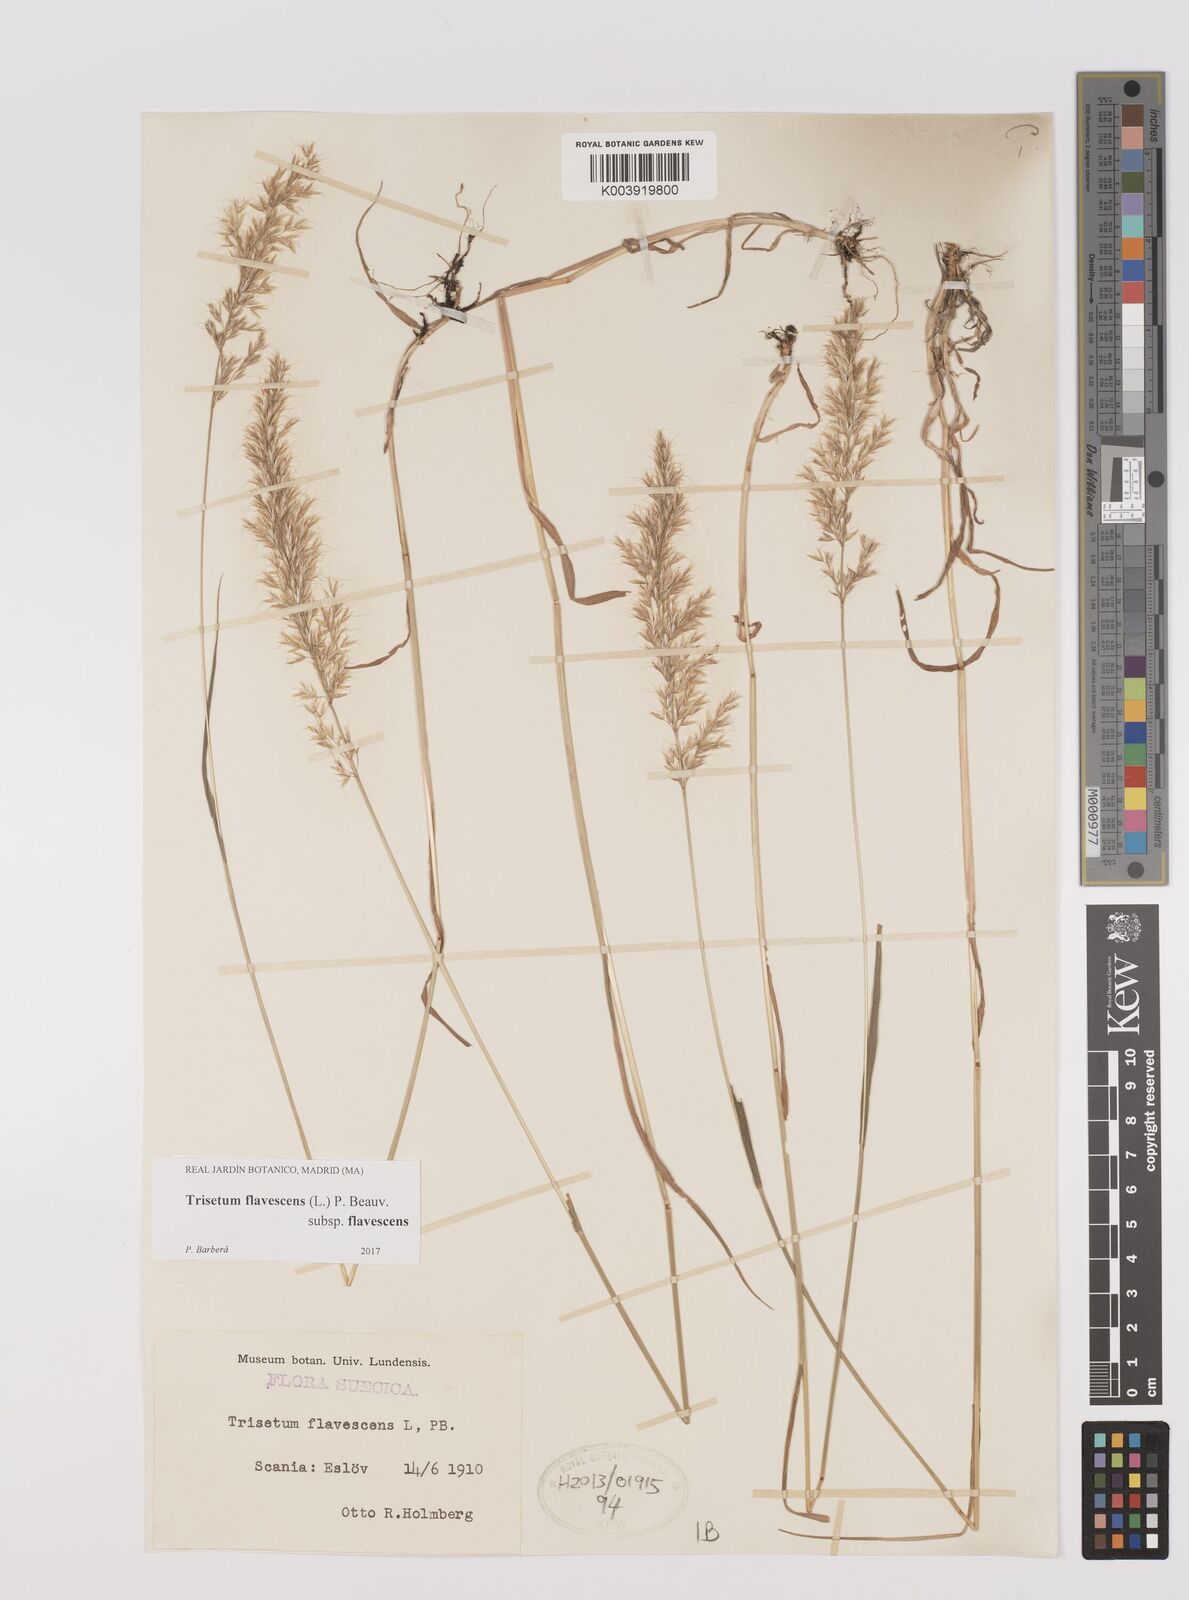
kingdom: Plantae
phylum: Tracheophyta
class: Liliopsida
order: Poales
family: Poaceae
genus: Trisetum
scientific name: Trisetum flavescens
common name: Yellow oat-grass
